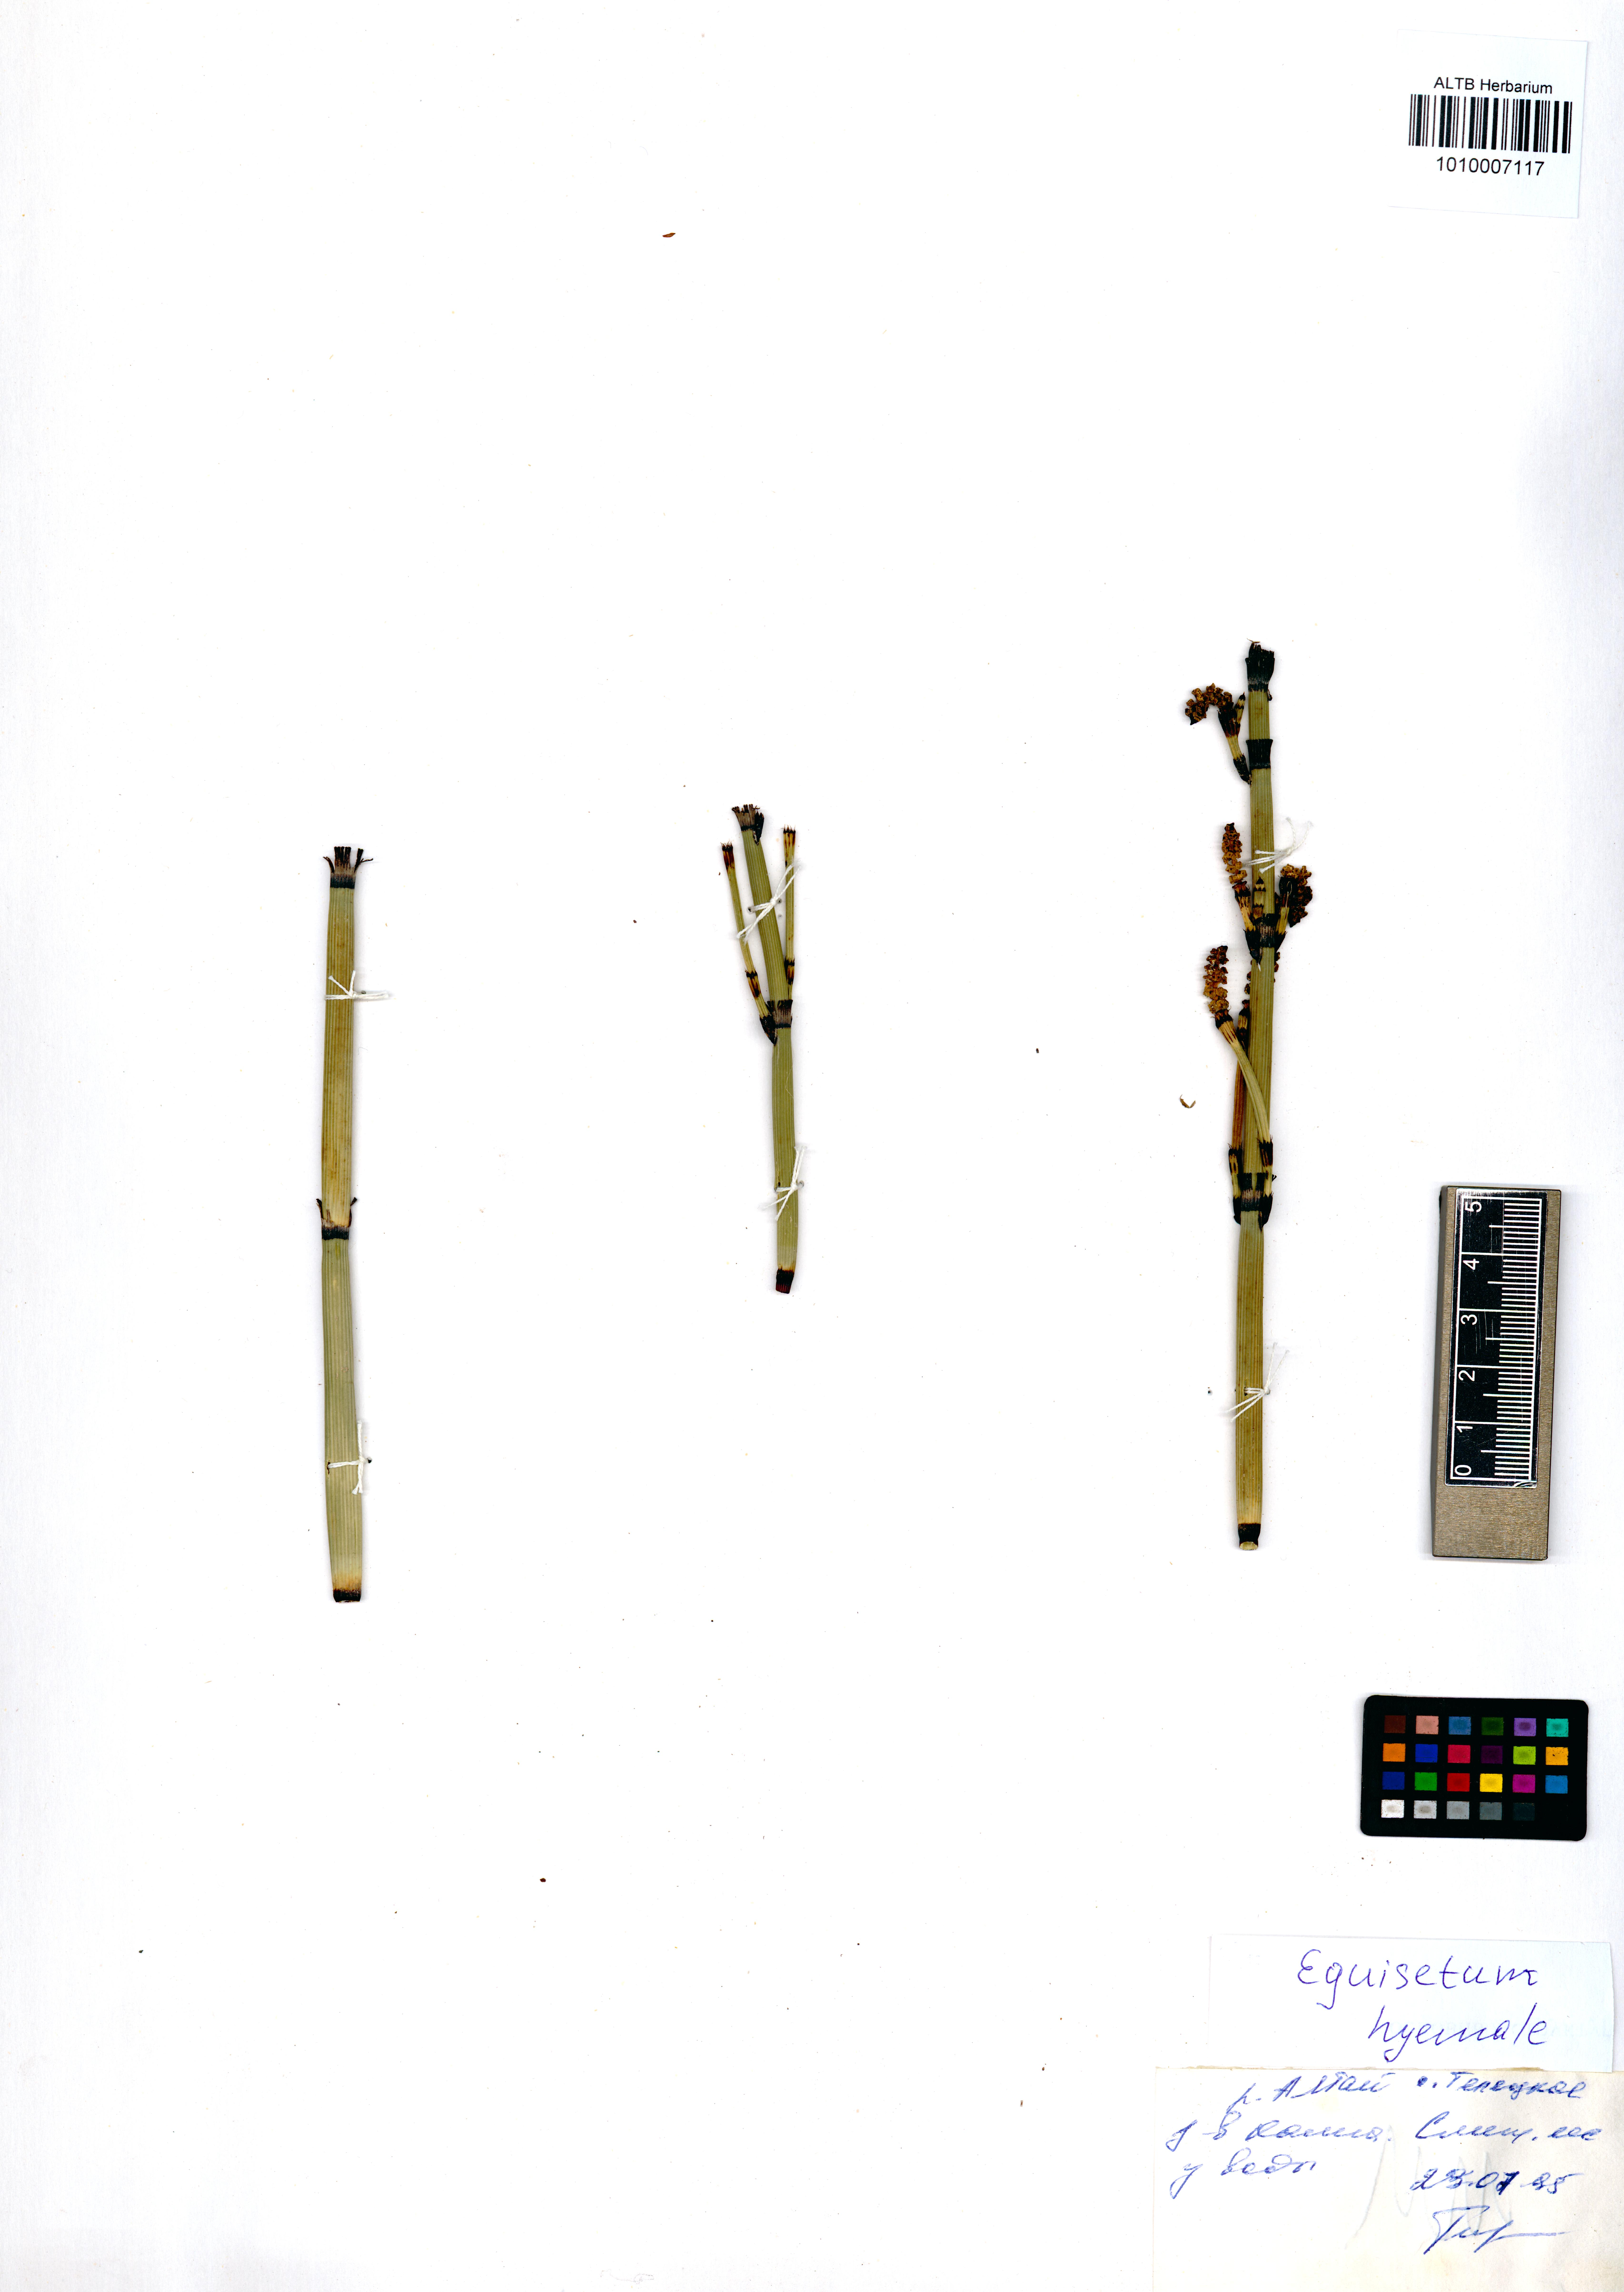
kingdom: Plantae
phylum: Tracheophyta
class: Polypodiopsida
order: Equisetales
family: Equisetaceae
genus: Equisetum
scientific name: Equisetum hyemale
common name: Rough horsetail
